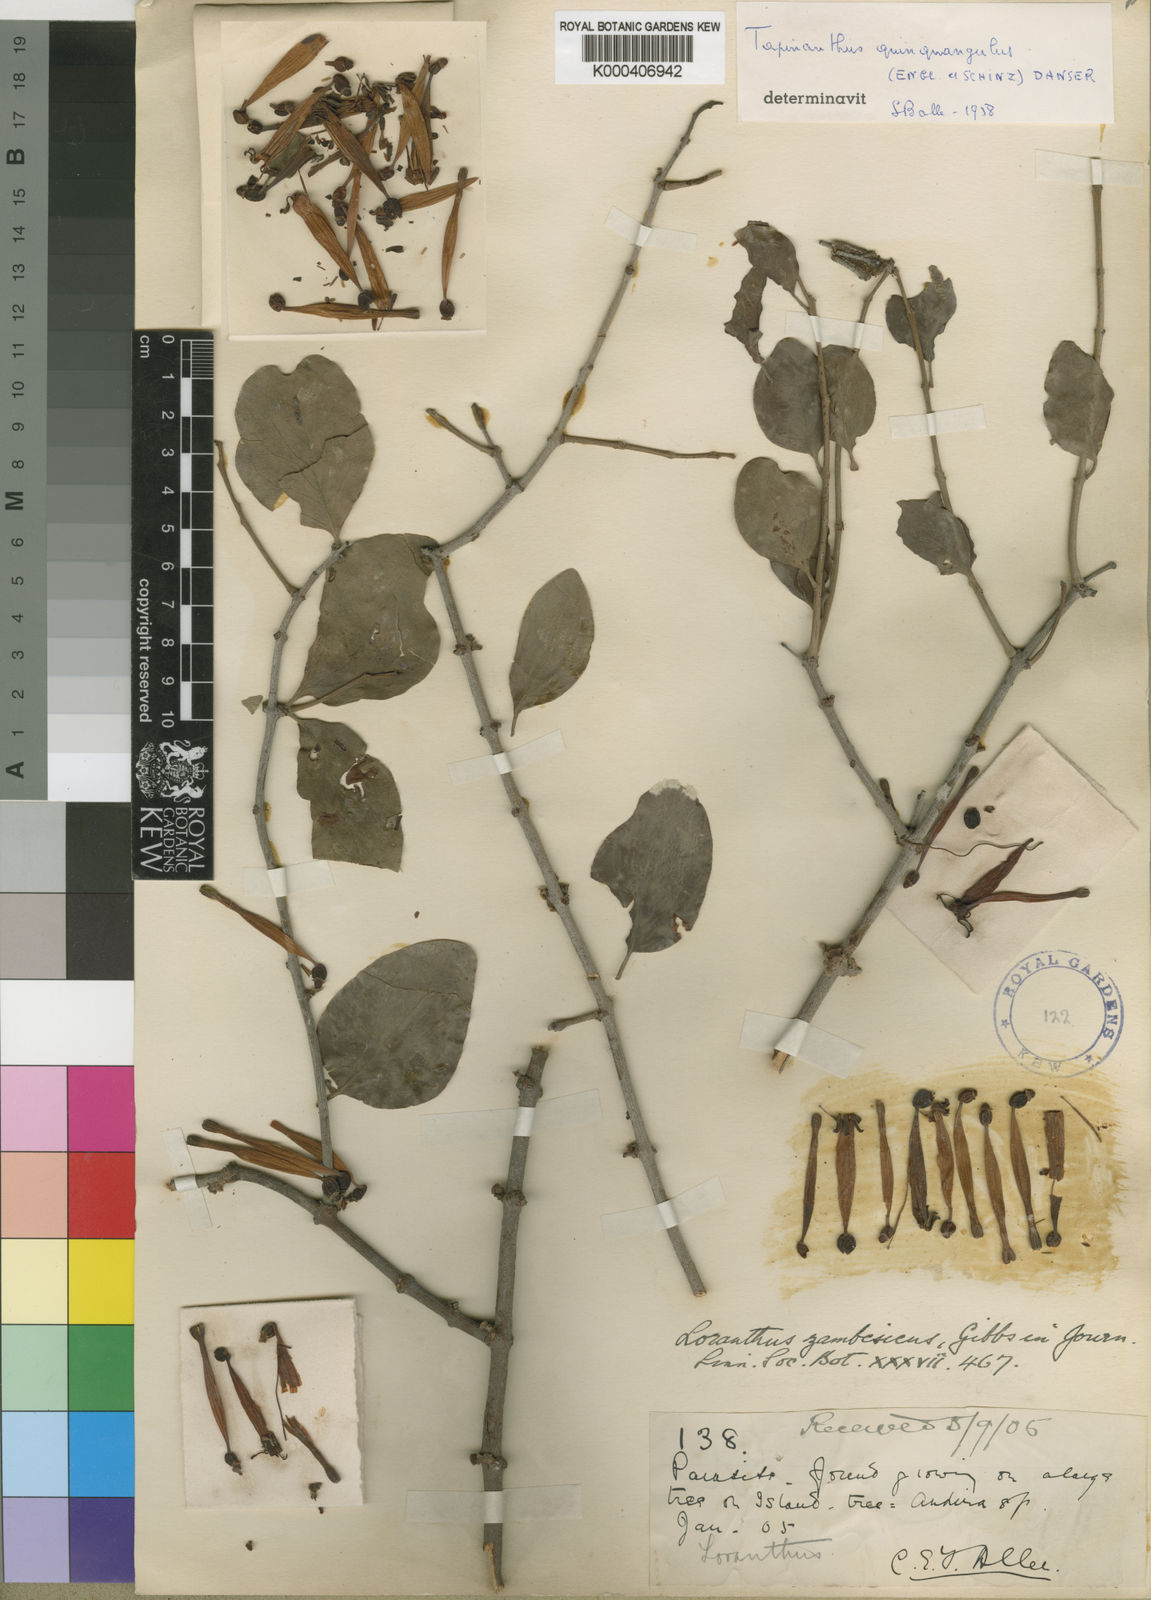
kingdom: Plantae
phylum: Tracheophyta
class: Magnoliopsida
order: Santalales
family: Loranthaceae
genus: Tapinanthus
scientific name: Tapinanthus oleifolius
